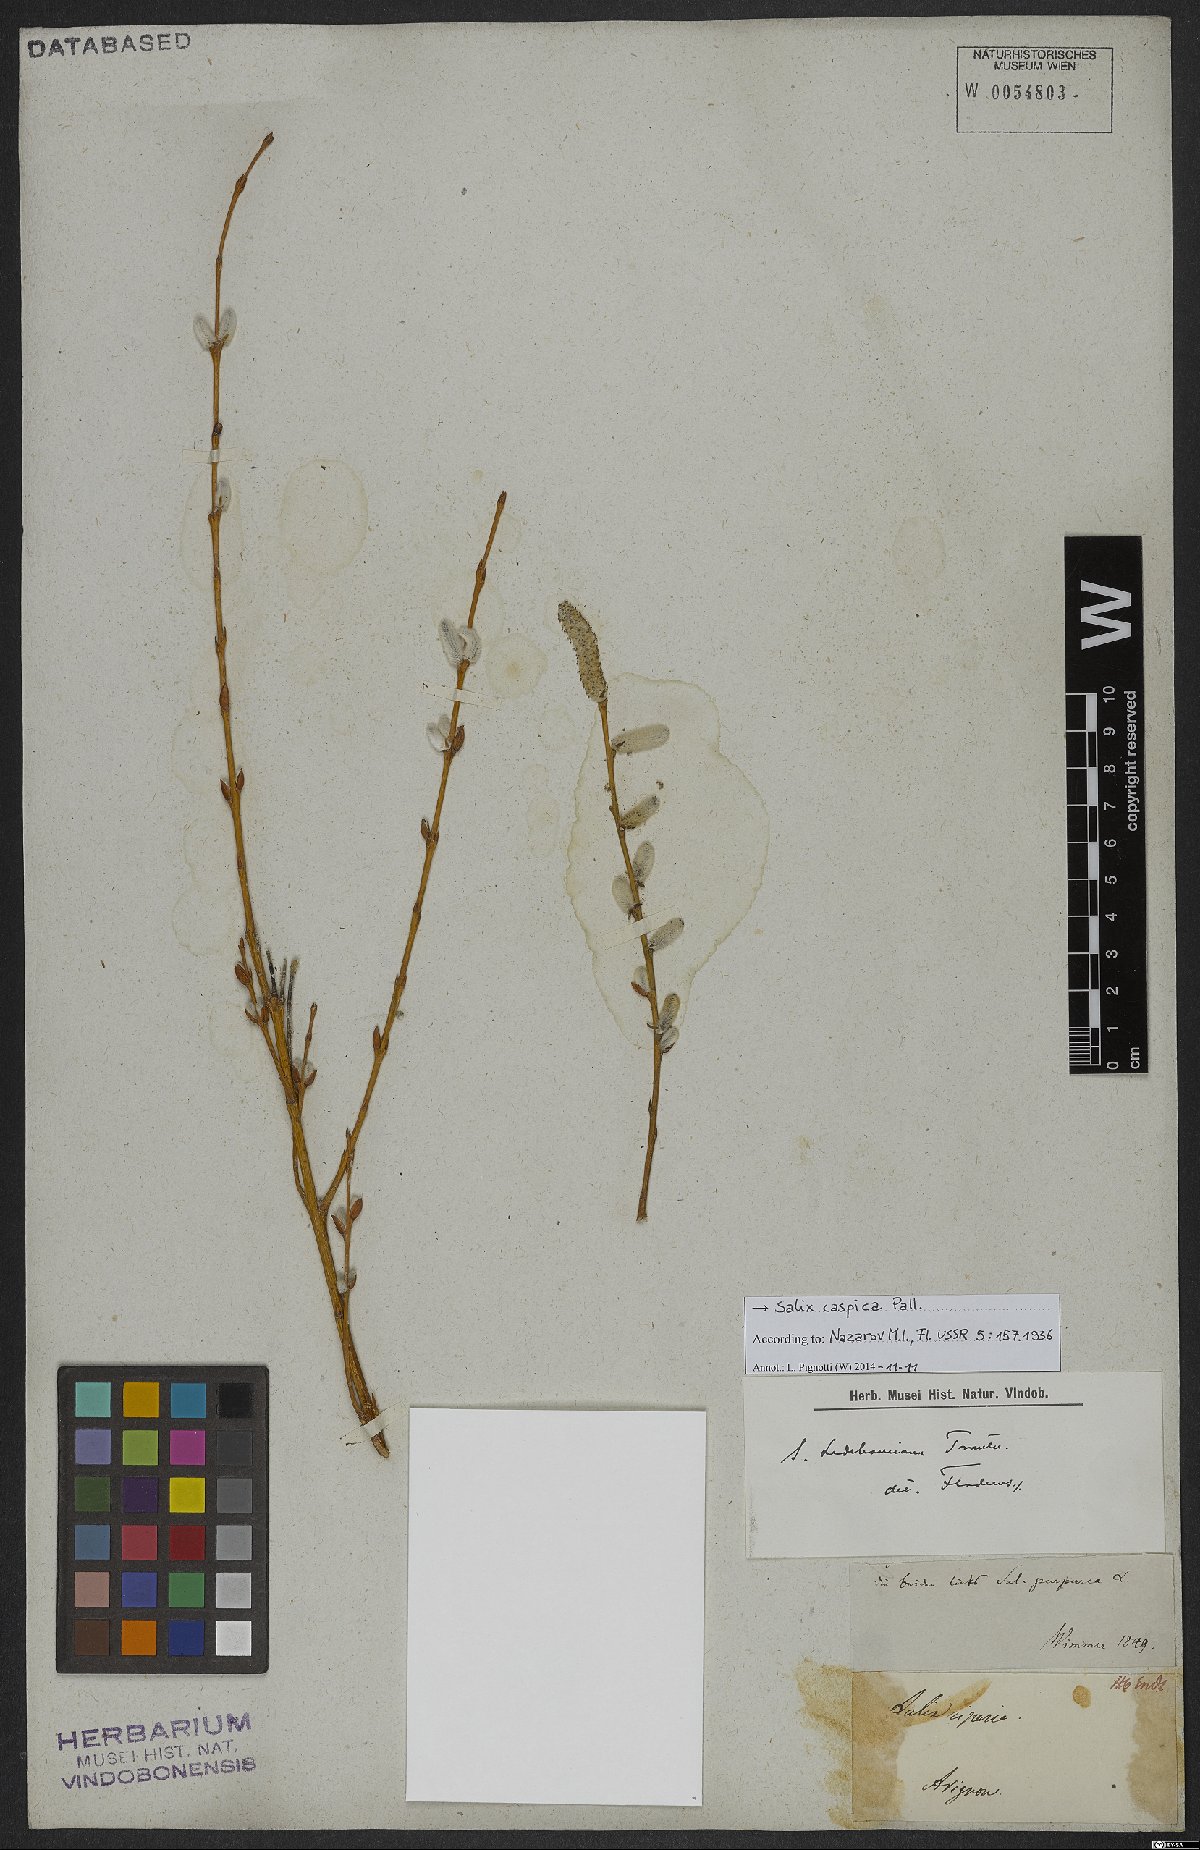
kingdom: Plantae
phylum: Tracheophyta
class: Magnoliopsida
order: Malpighiales
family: Salicaceae
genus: Salix
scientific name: Salix caspica
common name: Caspian willow
